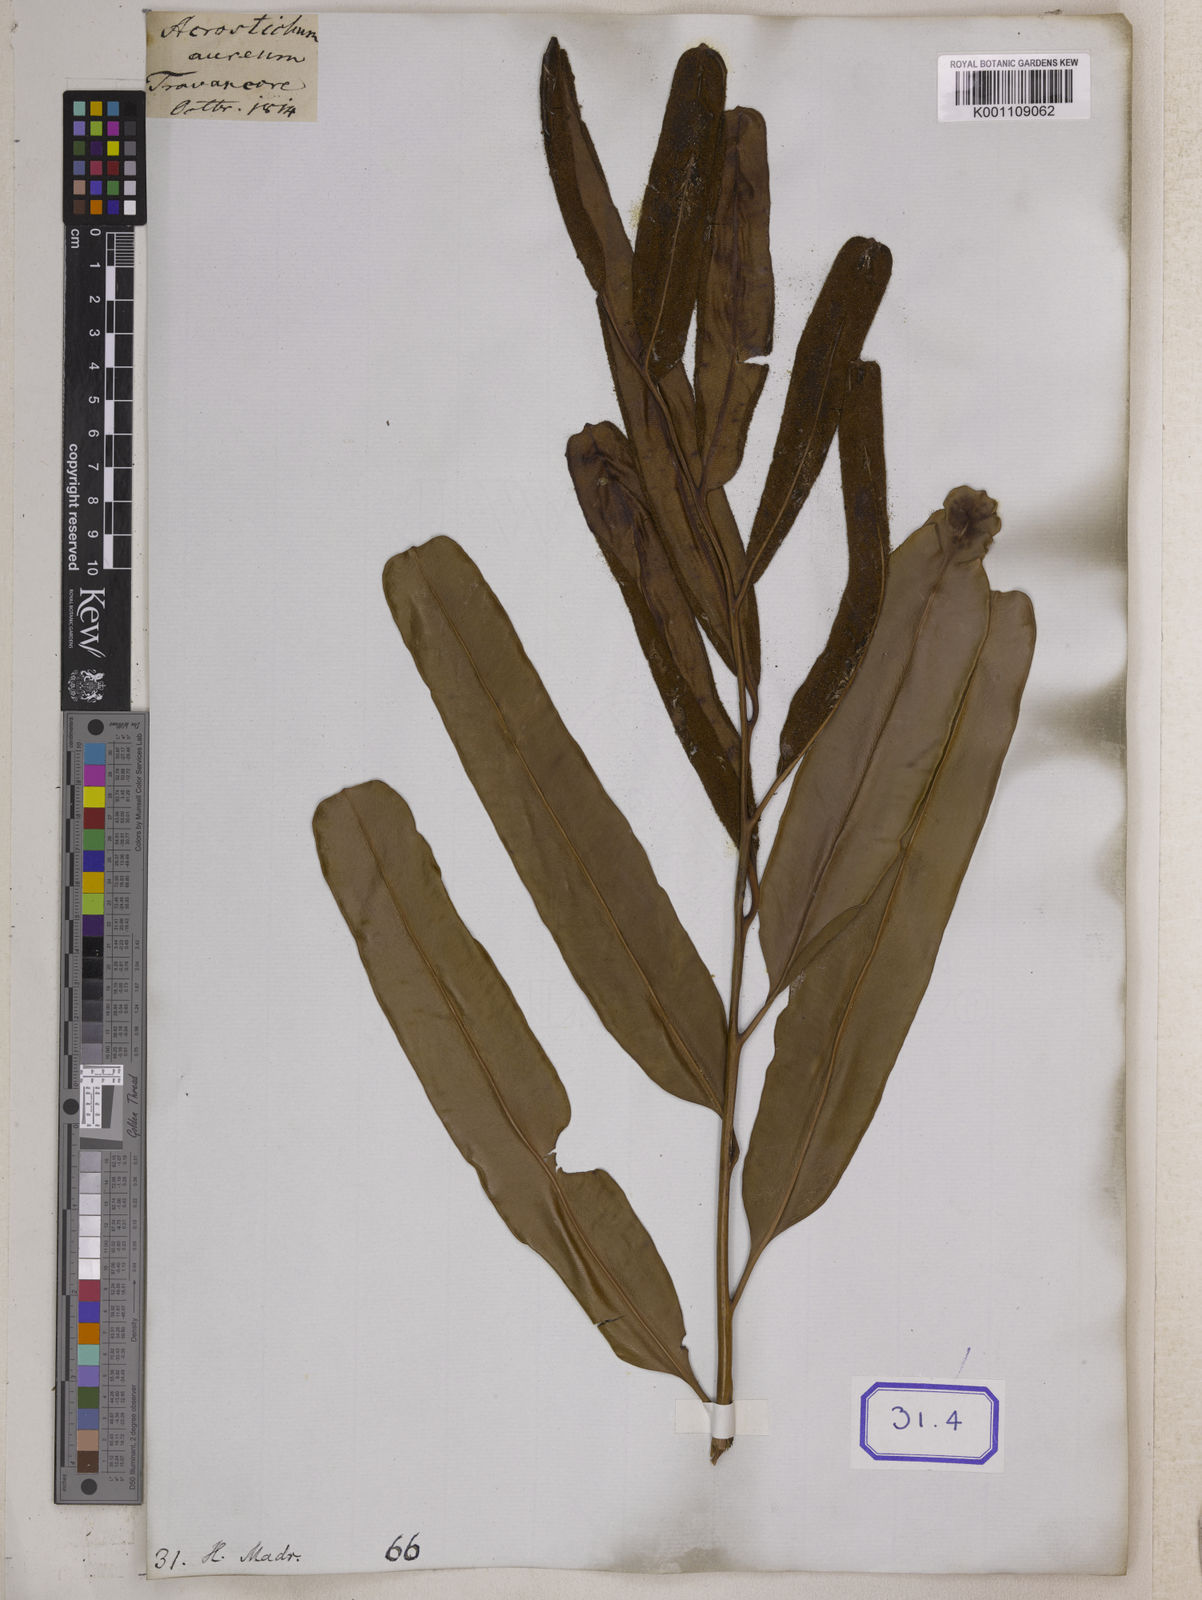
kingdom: Plantae
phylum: Tracheophyta
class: Polypodiopsida
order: Polypodiales
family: Pteridaceae
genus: Acrostichum
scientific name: Acrostichum aureum
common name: Leather fern
